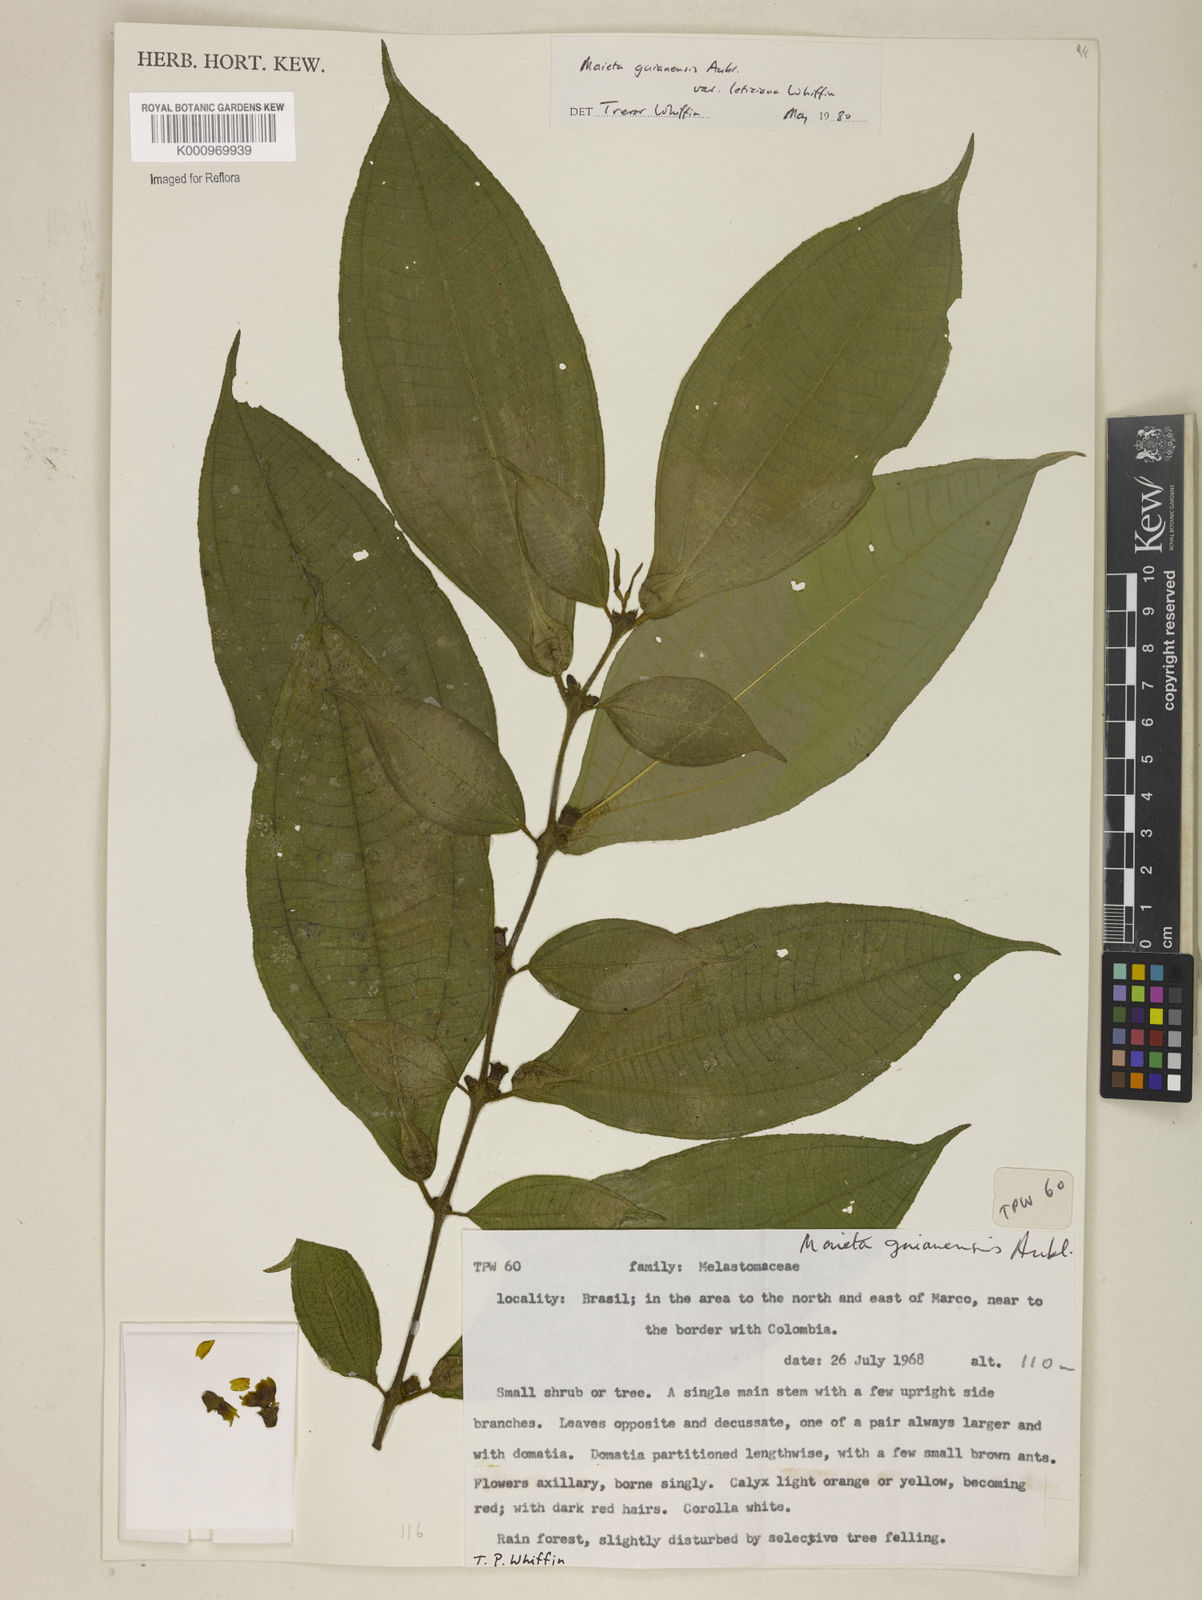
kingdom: Plantae
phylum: Tracheophyta
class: Magnoliopsida
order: Myrtales
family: Melastomataceae
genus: Miconia
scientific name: Miconia mayeta
